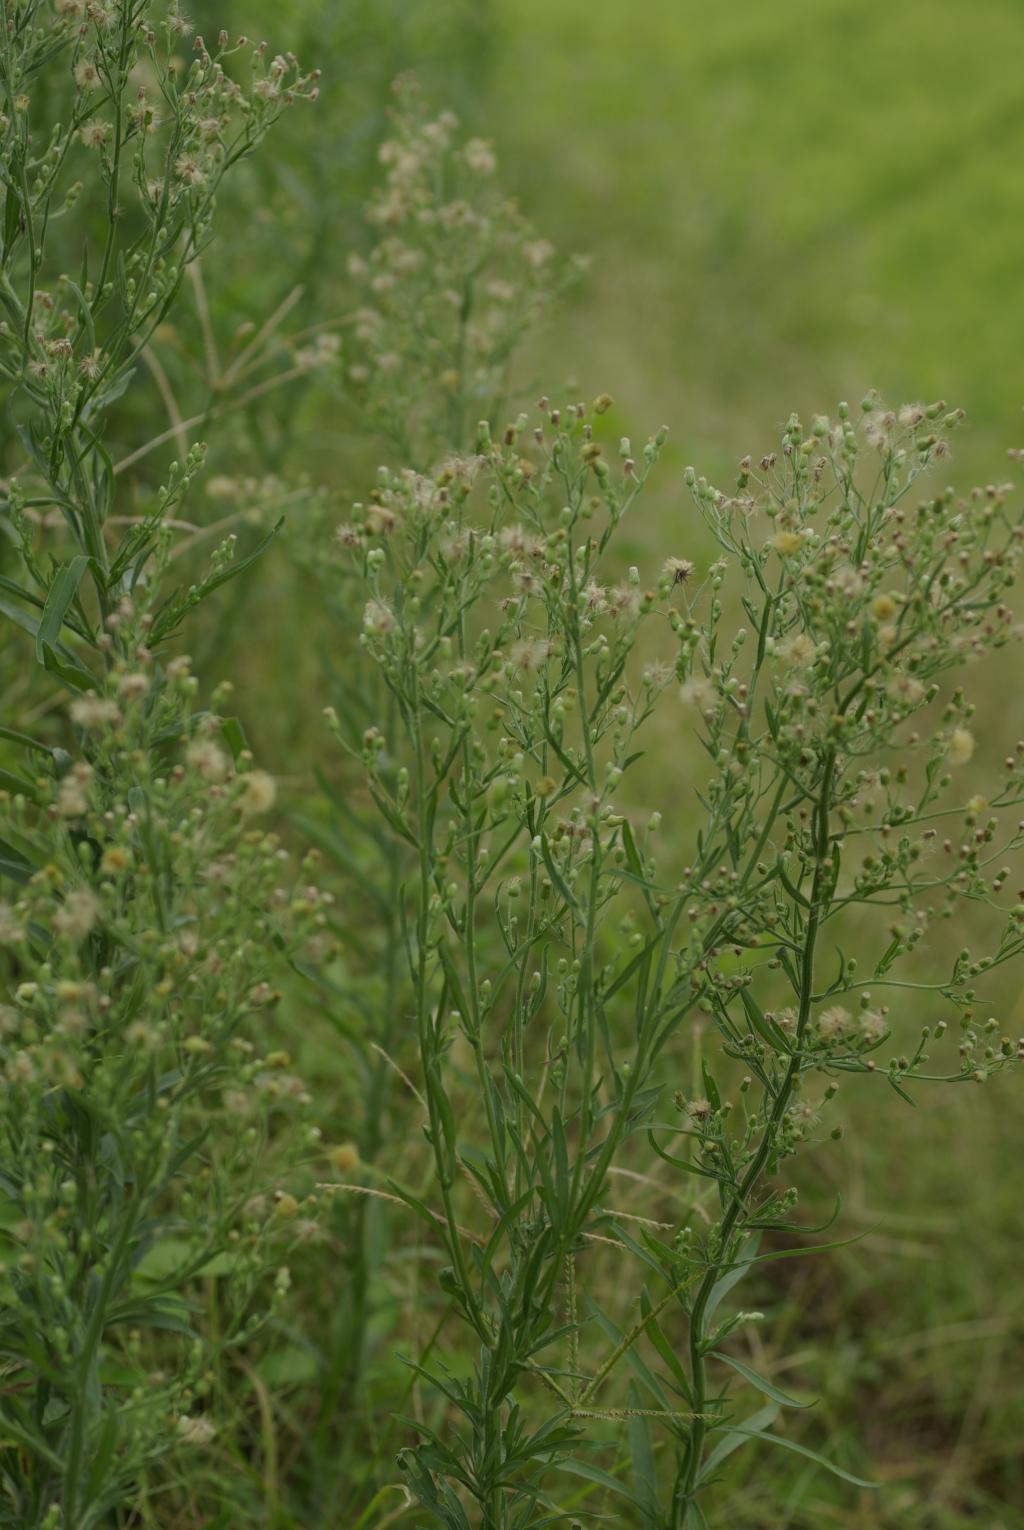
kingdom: Plantae
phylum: Tracheophyta
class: Magnoliopsida
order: Asterales
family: Asteraceae
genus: Erigeron
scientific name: Erigeron sumatrensis
